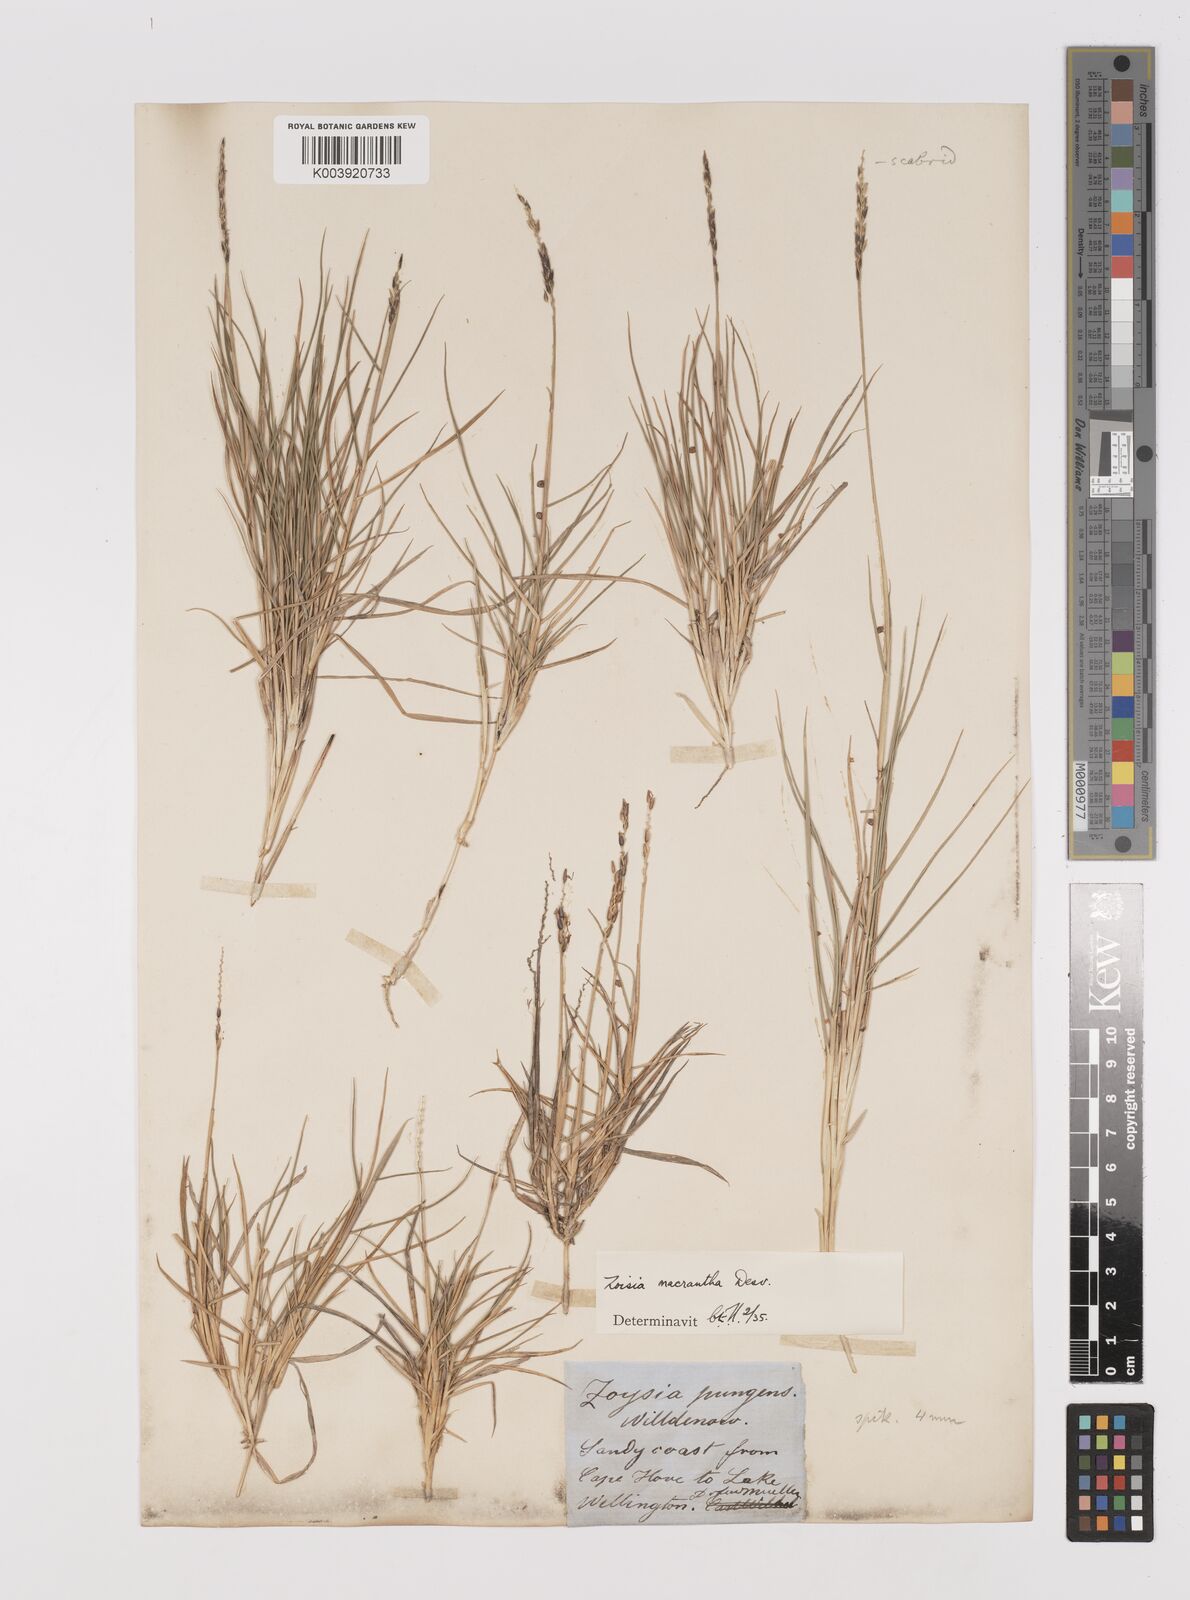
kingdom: Plantae
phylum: Tracheophyta
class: Liliopsida
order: Poales
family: Poaceae
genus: Zoysia
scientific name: Zoysia macrantha
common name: Korean lawn grass
